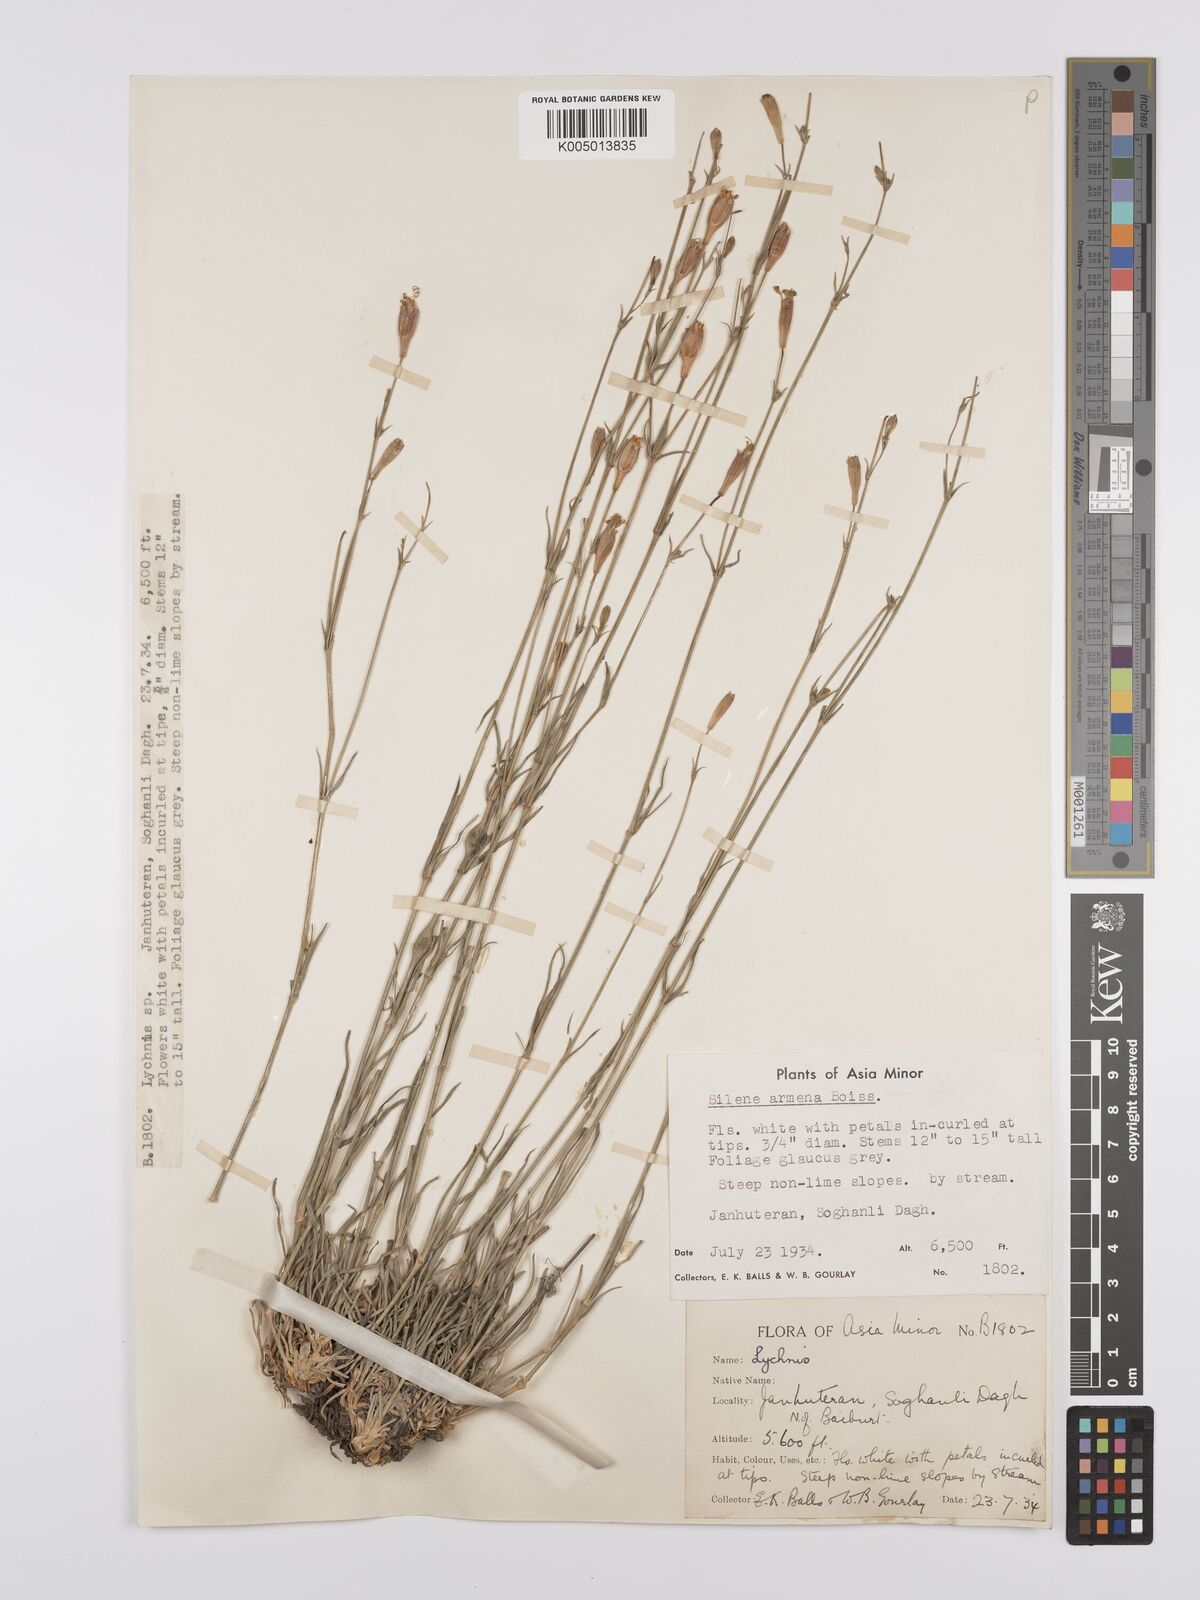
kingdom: Plantae
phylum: Tracheophyta
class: Magnoliopsida
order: Caryophyllales
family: Caryophyllaceae
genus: Silene
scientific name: Silene
